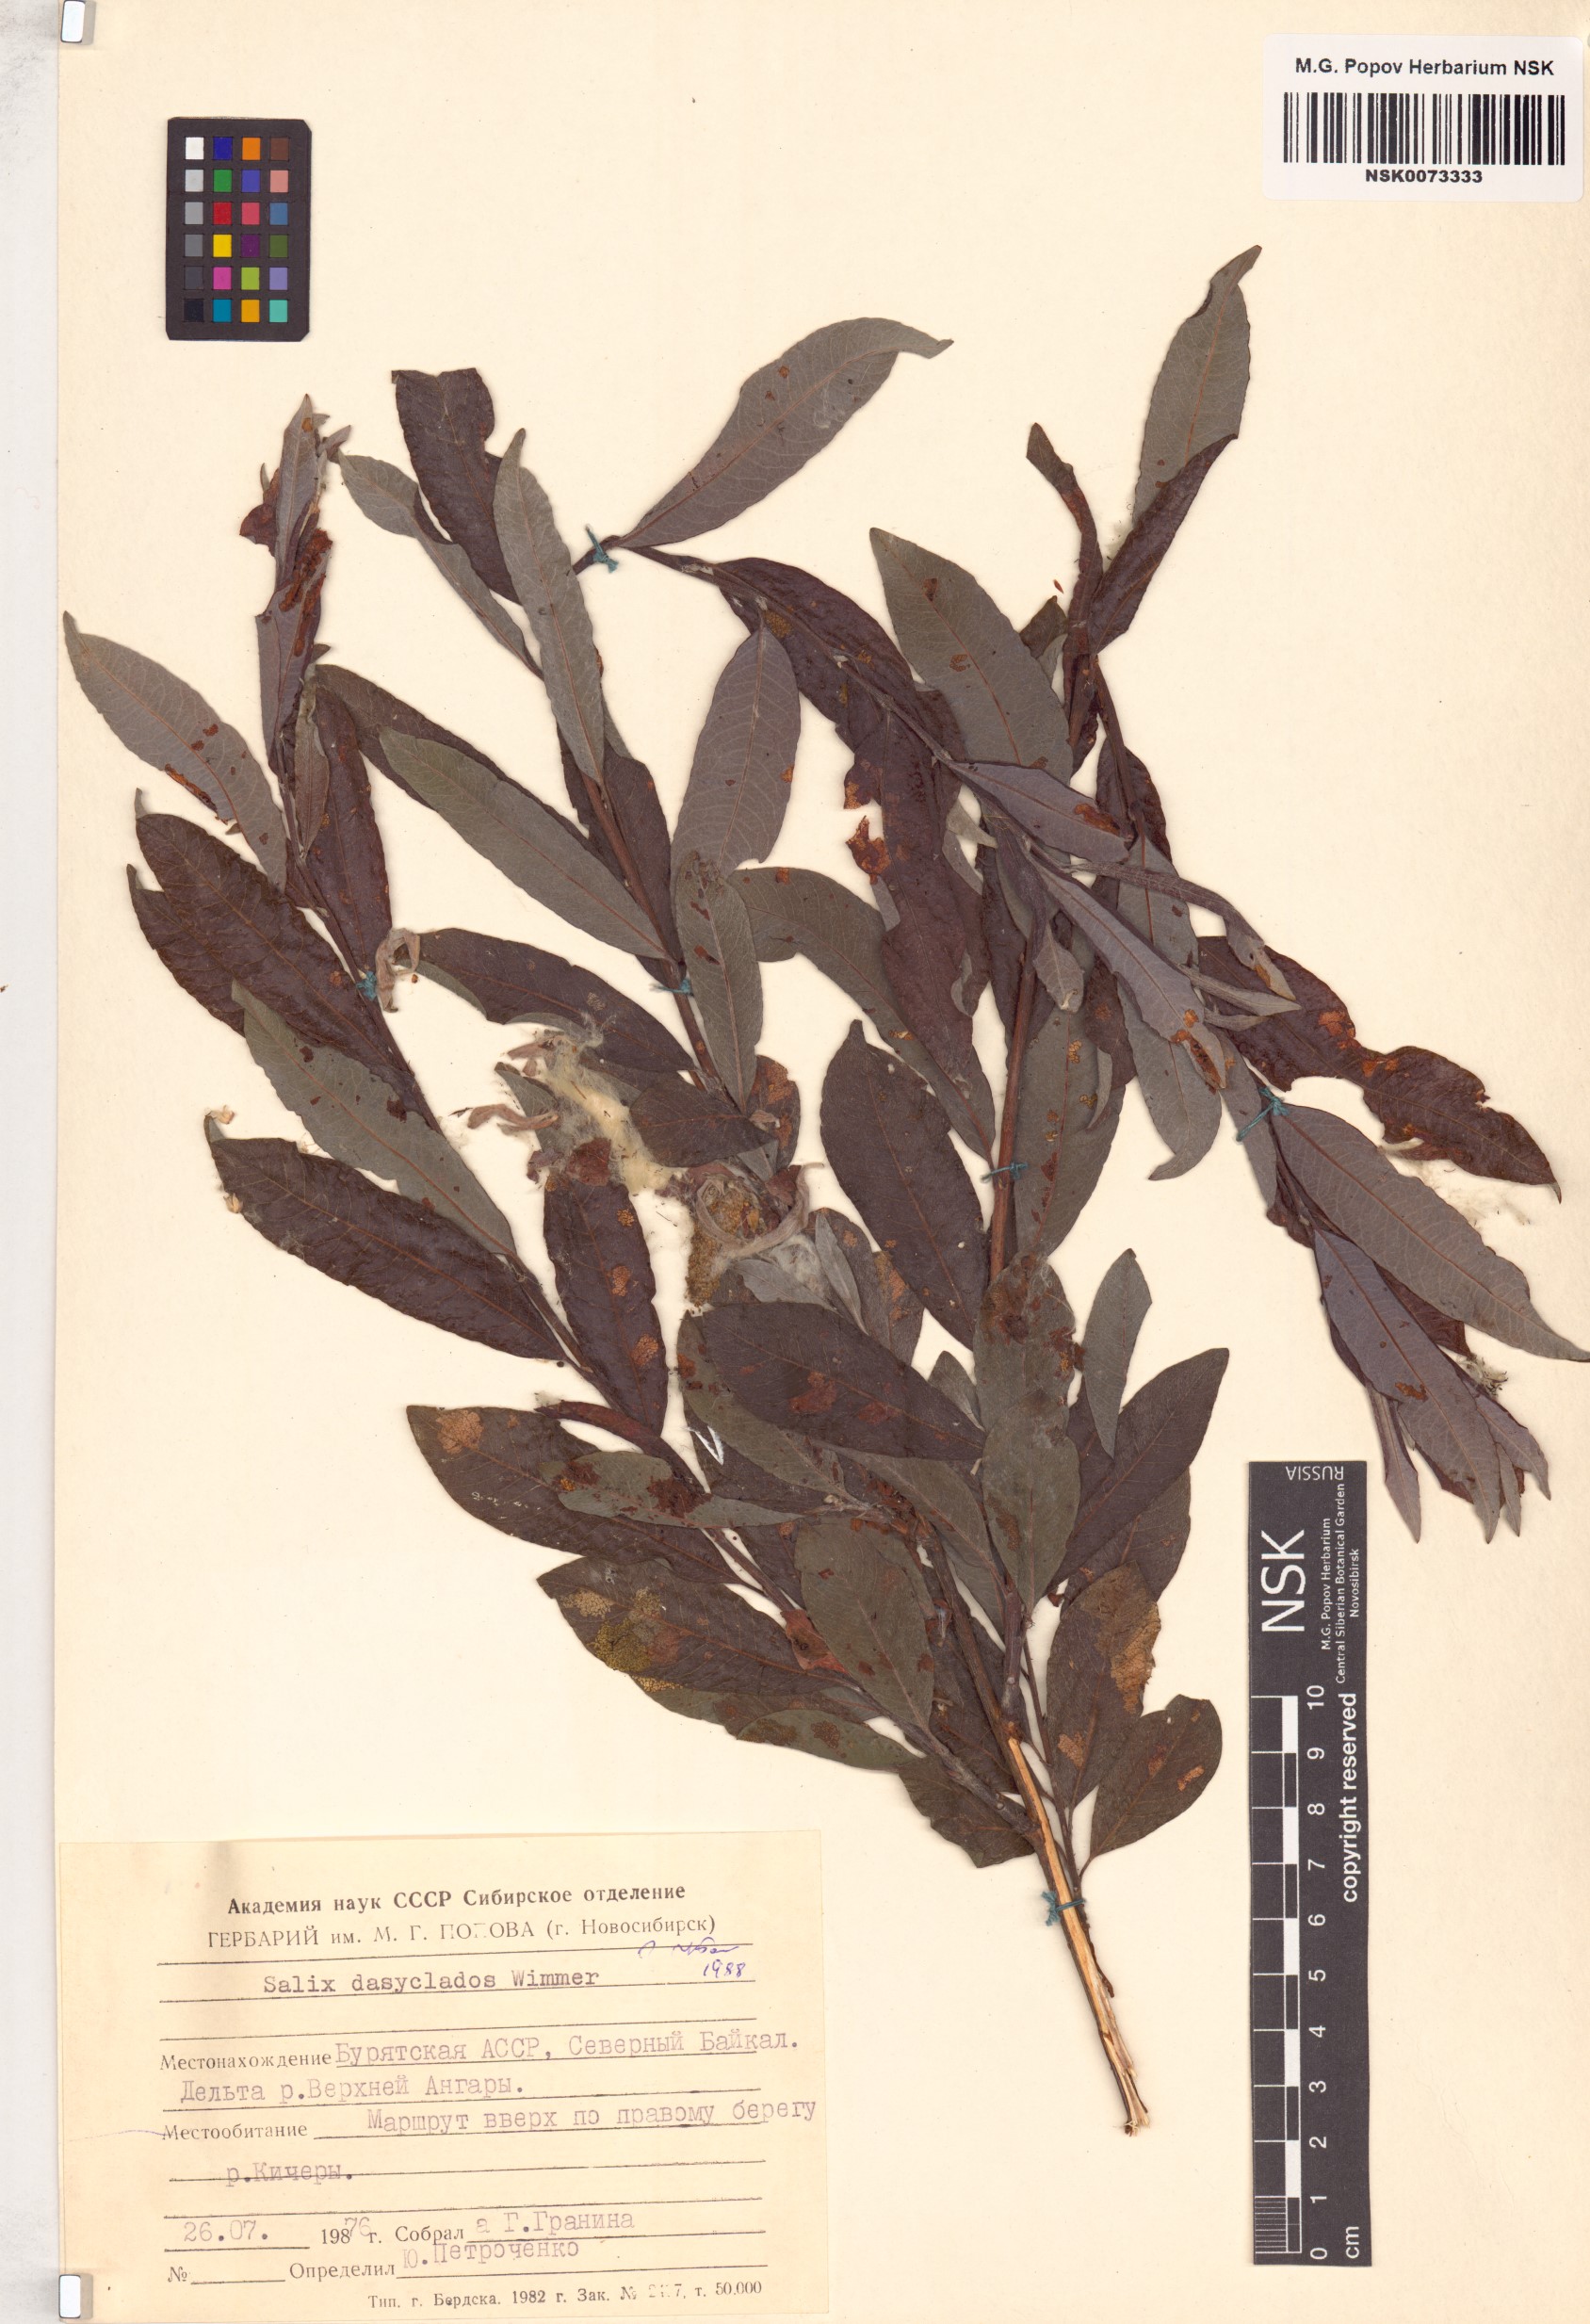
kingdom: Plantae
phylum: Tracheophyta
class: Magnoliopsida
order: Malpighiales
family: Salicaceae
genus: Salix
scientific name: Salix gmelinii
